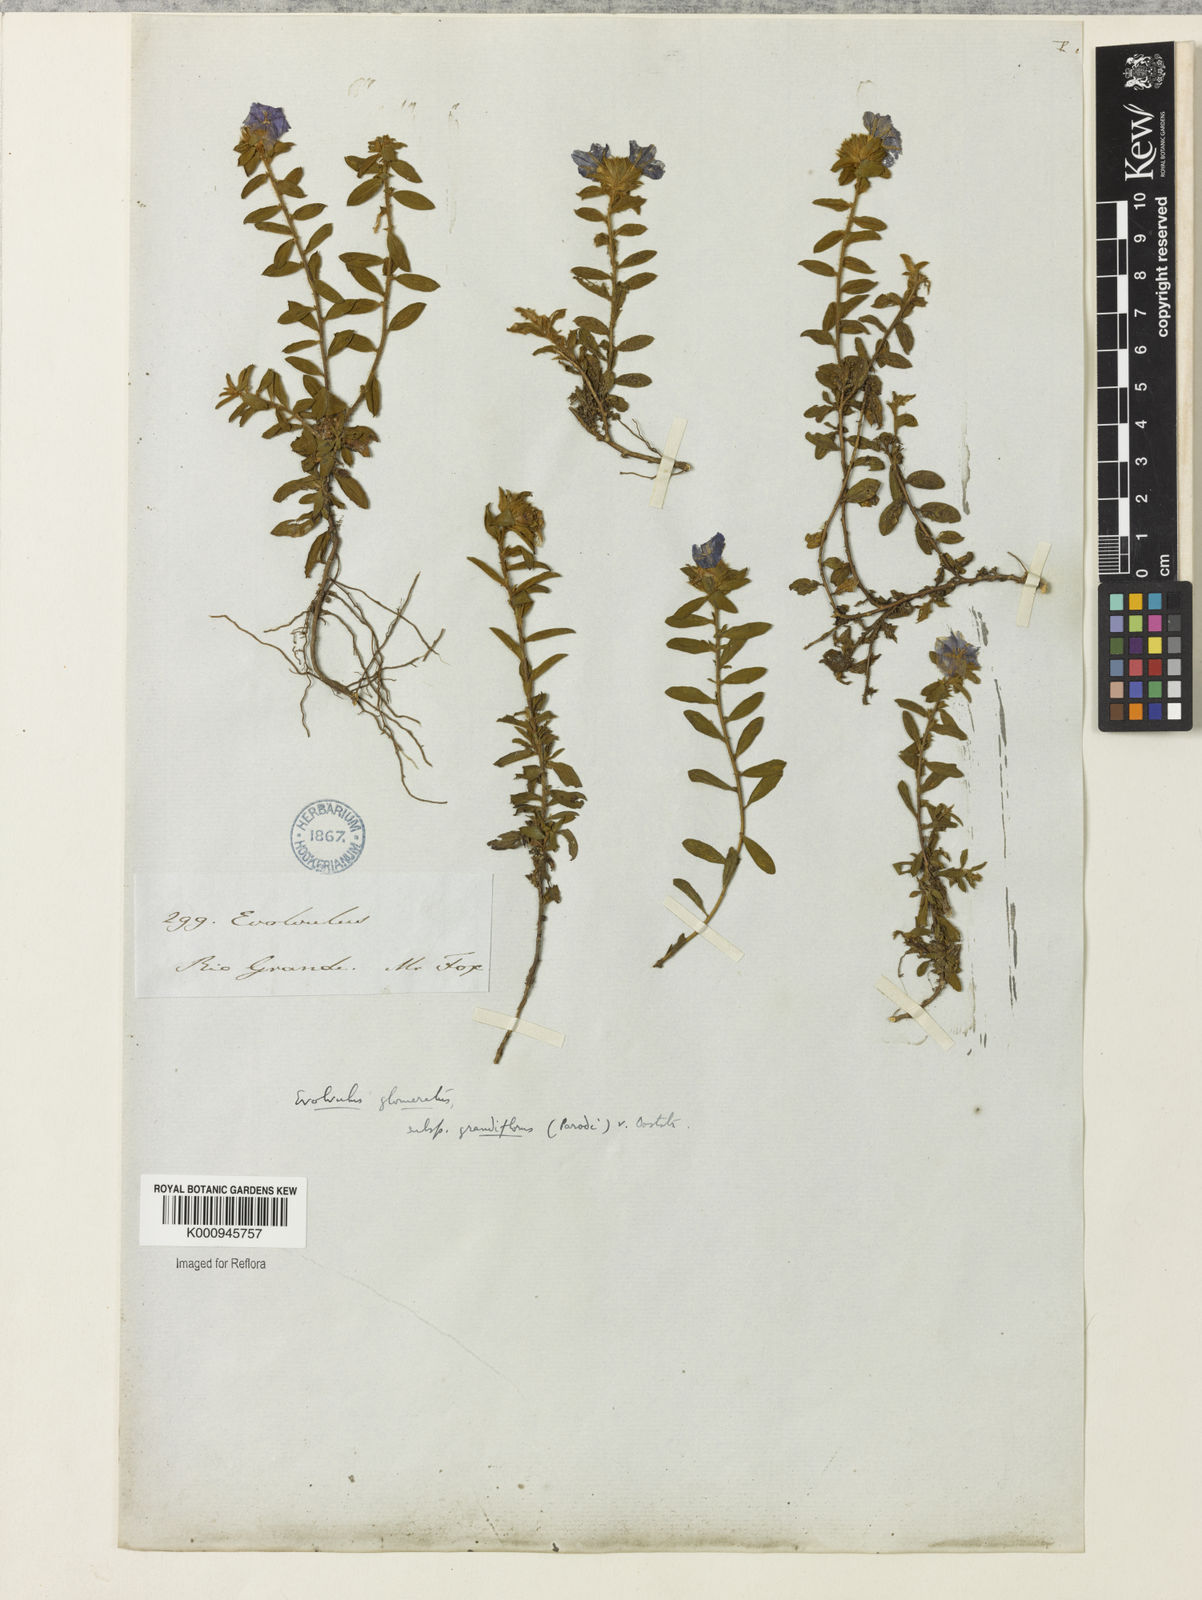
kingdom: Plantae
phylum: Tracheophyta
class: Magnoliopsida
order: Solanales
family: Convolvulaceae
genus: Evolvulus
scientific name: Evolvulus glomeratus
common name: Brazilian dwarf morning-glory
